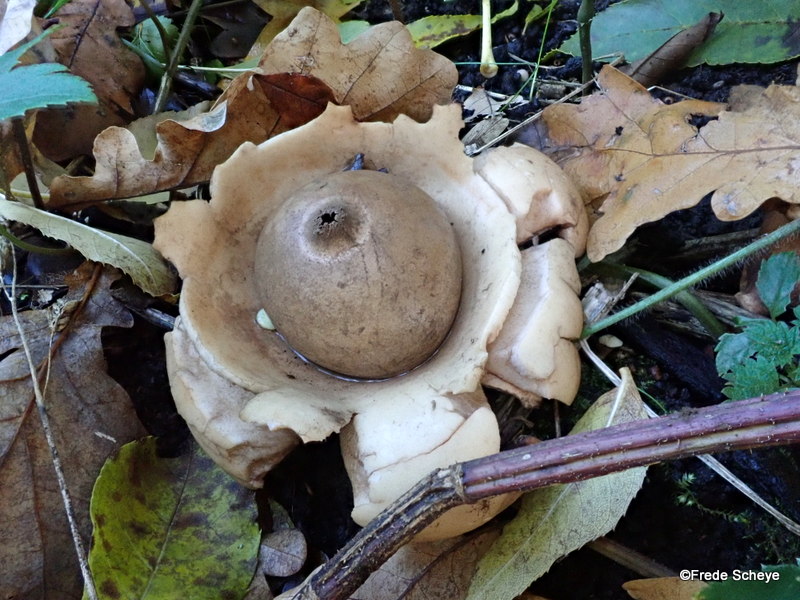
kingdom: Fungi
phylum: Basidiomycota
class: Agaricomycetes
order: Geastrales
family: Geastraceae
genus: Geastrum
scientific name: Geastrum michelianum
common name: kødet stjernebold
